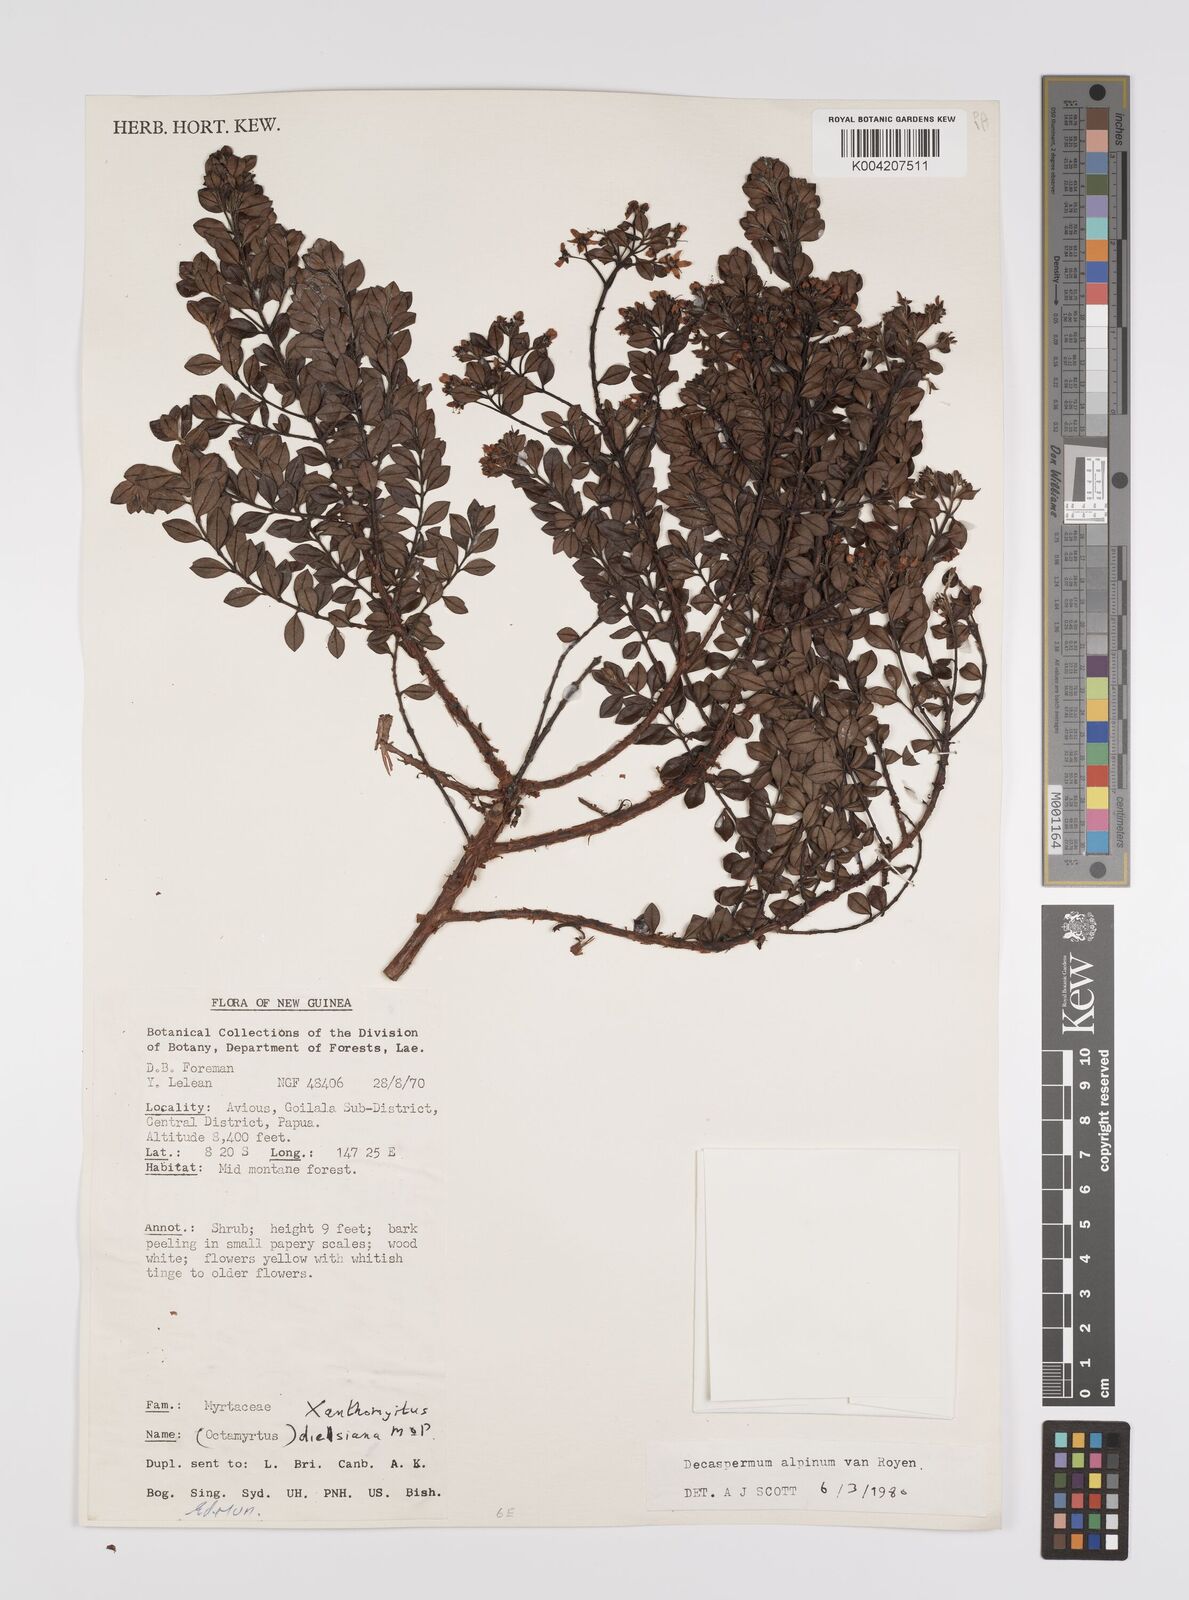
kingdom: Plantae
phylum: Tracheophyta
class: Magnoliopsida
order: Myrtales
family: Myrtaceae
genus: Decaspermum
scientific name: Decaspermum alpinum
